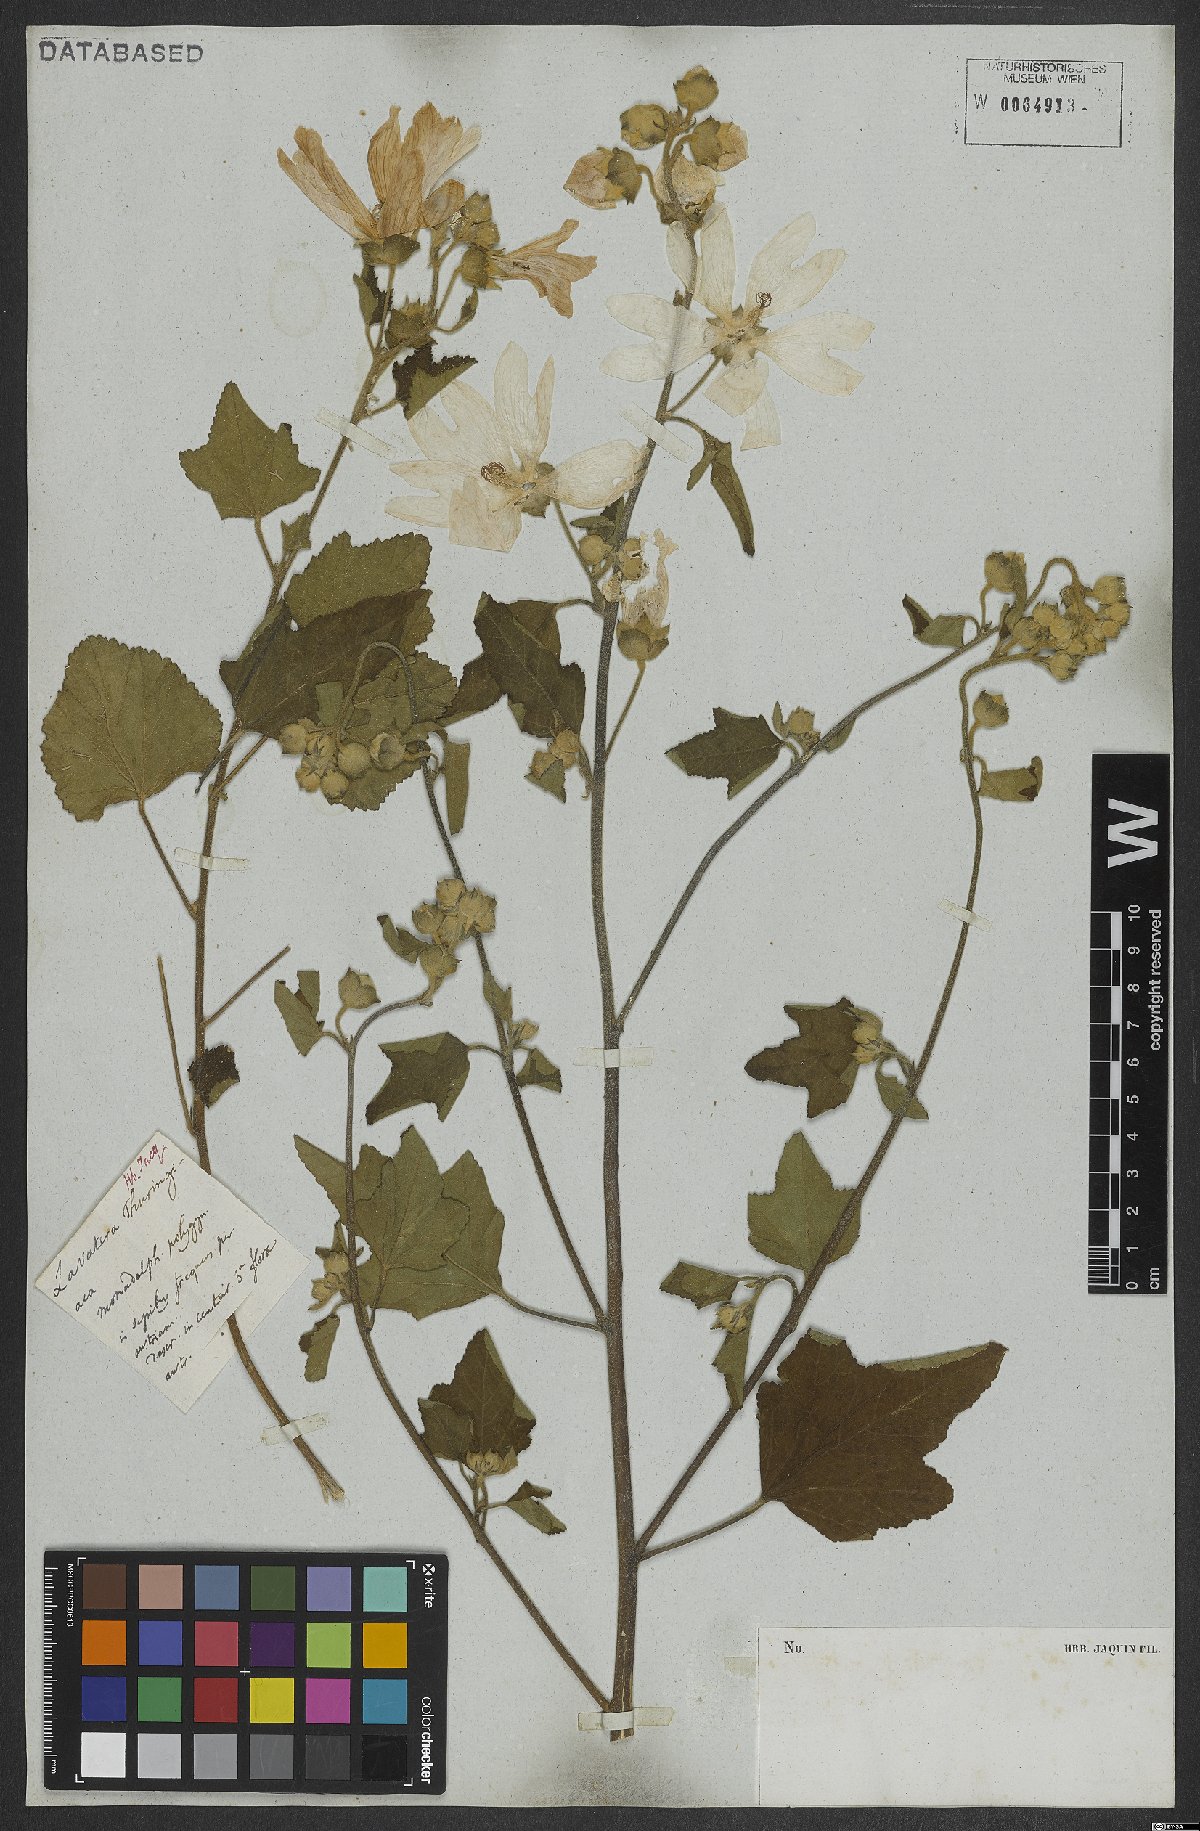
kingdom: Plantae
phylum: Tracheophyta
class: Magnoliopsida
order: Malvales
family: Malvaceae
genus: Malva
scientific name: Malva thuringiaca
